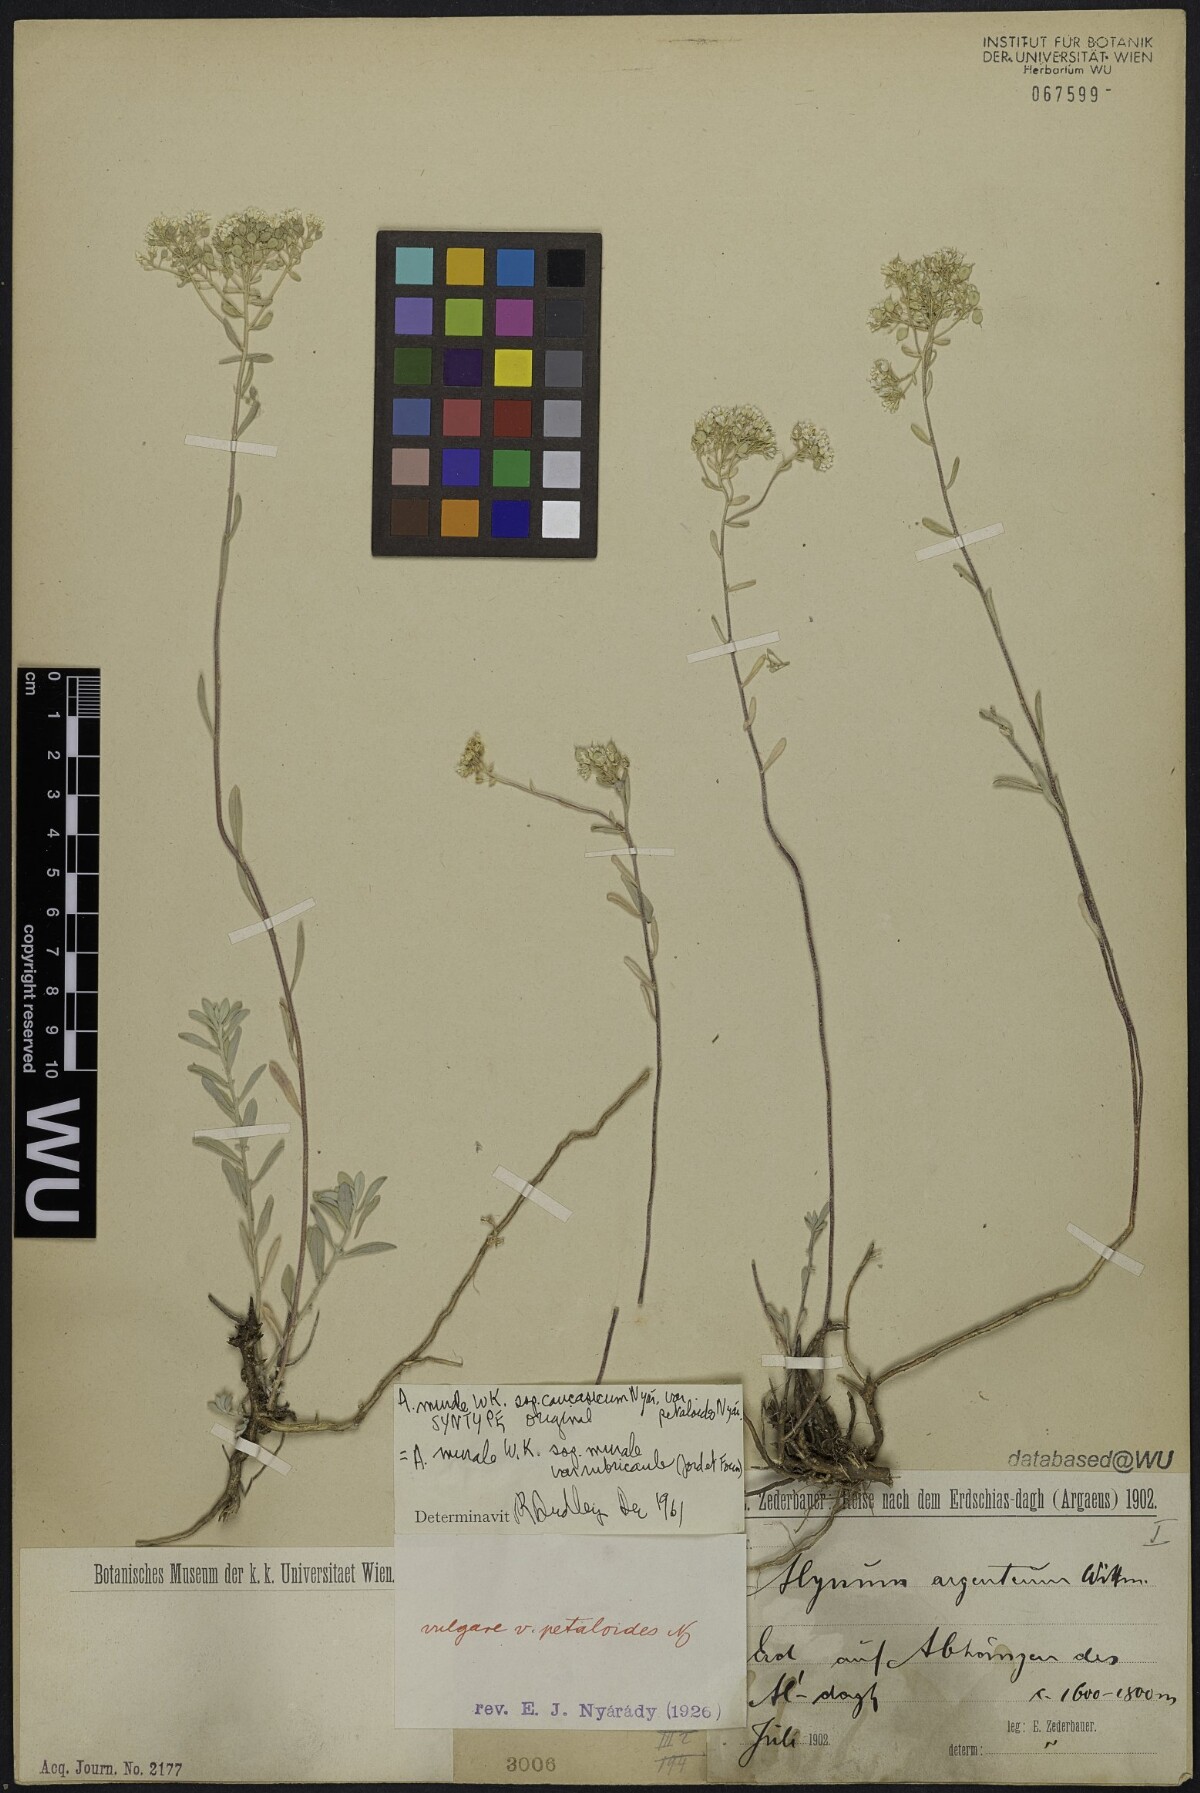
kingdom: Plantae
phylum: Tracheophyta
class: Magnoliopsida
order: Brassicales
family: Brassicaceae
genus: Odontarrhena
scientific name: Odontarrhena muralis
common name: Rock alyssum
